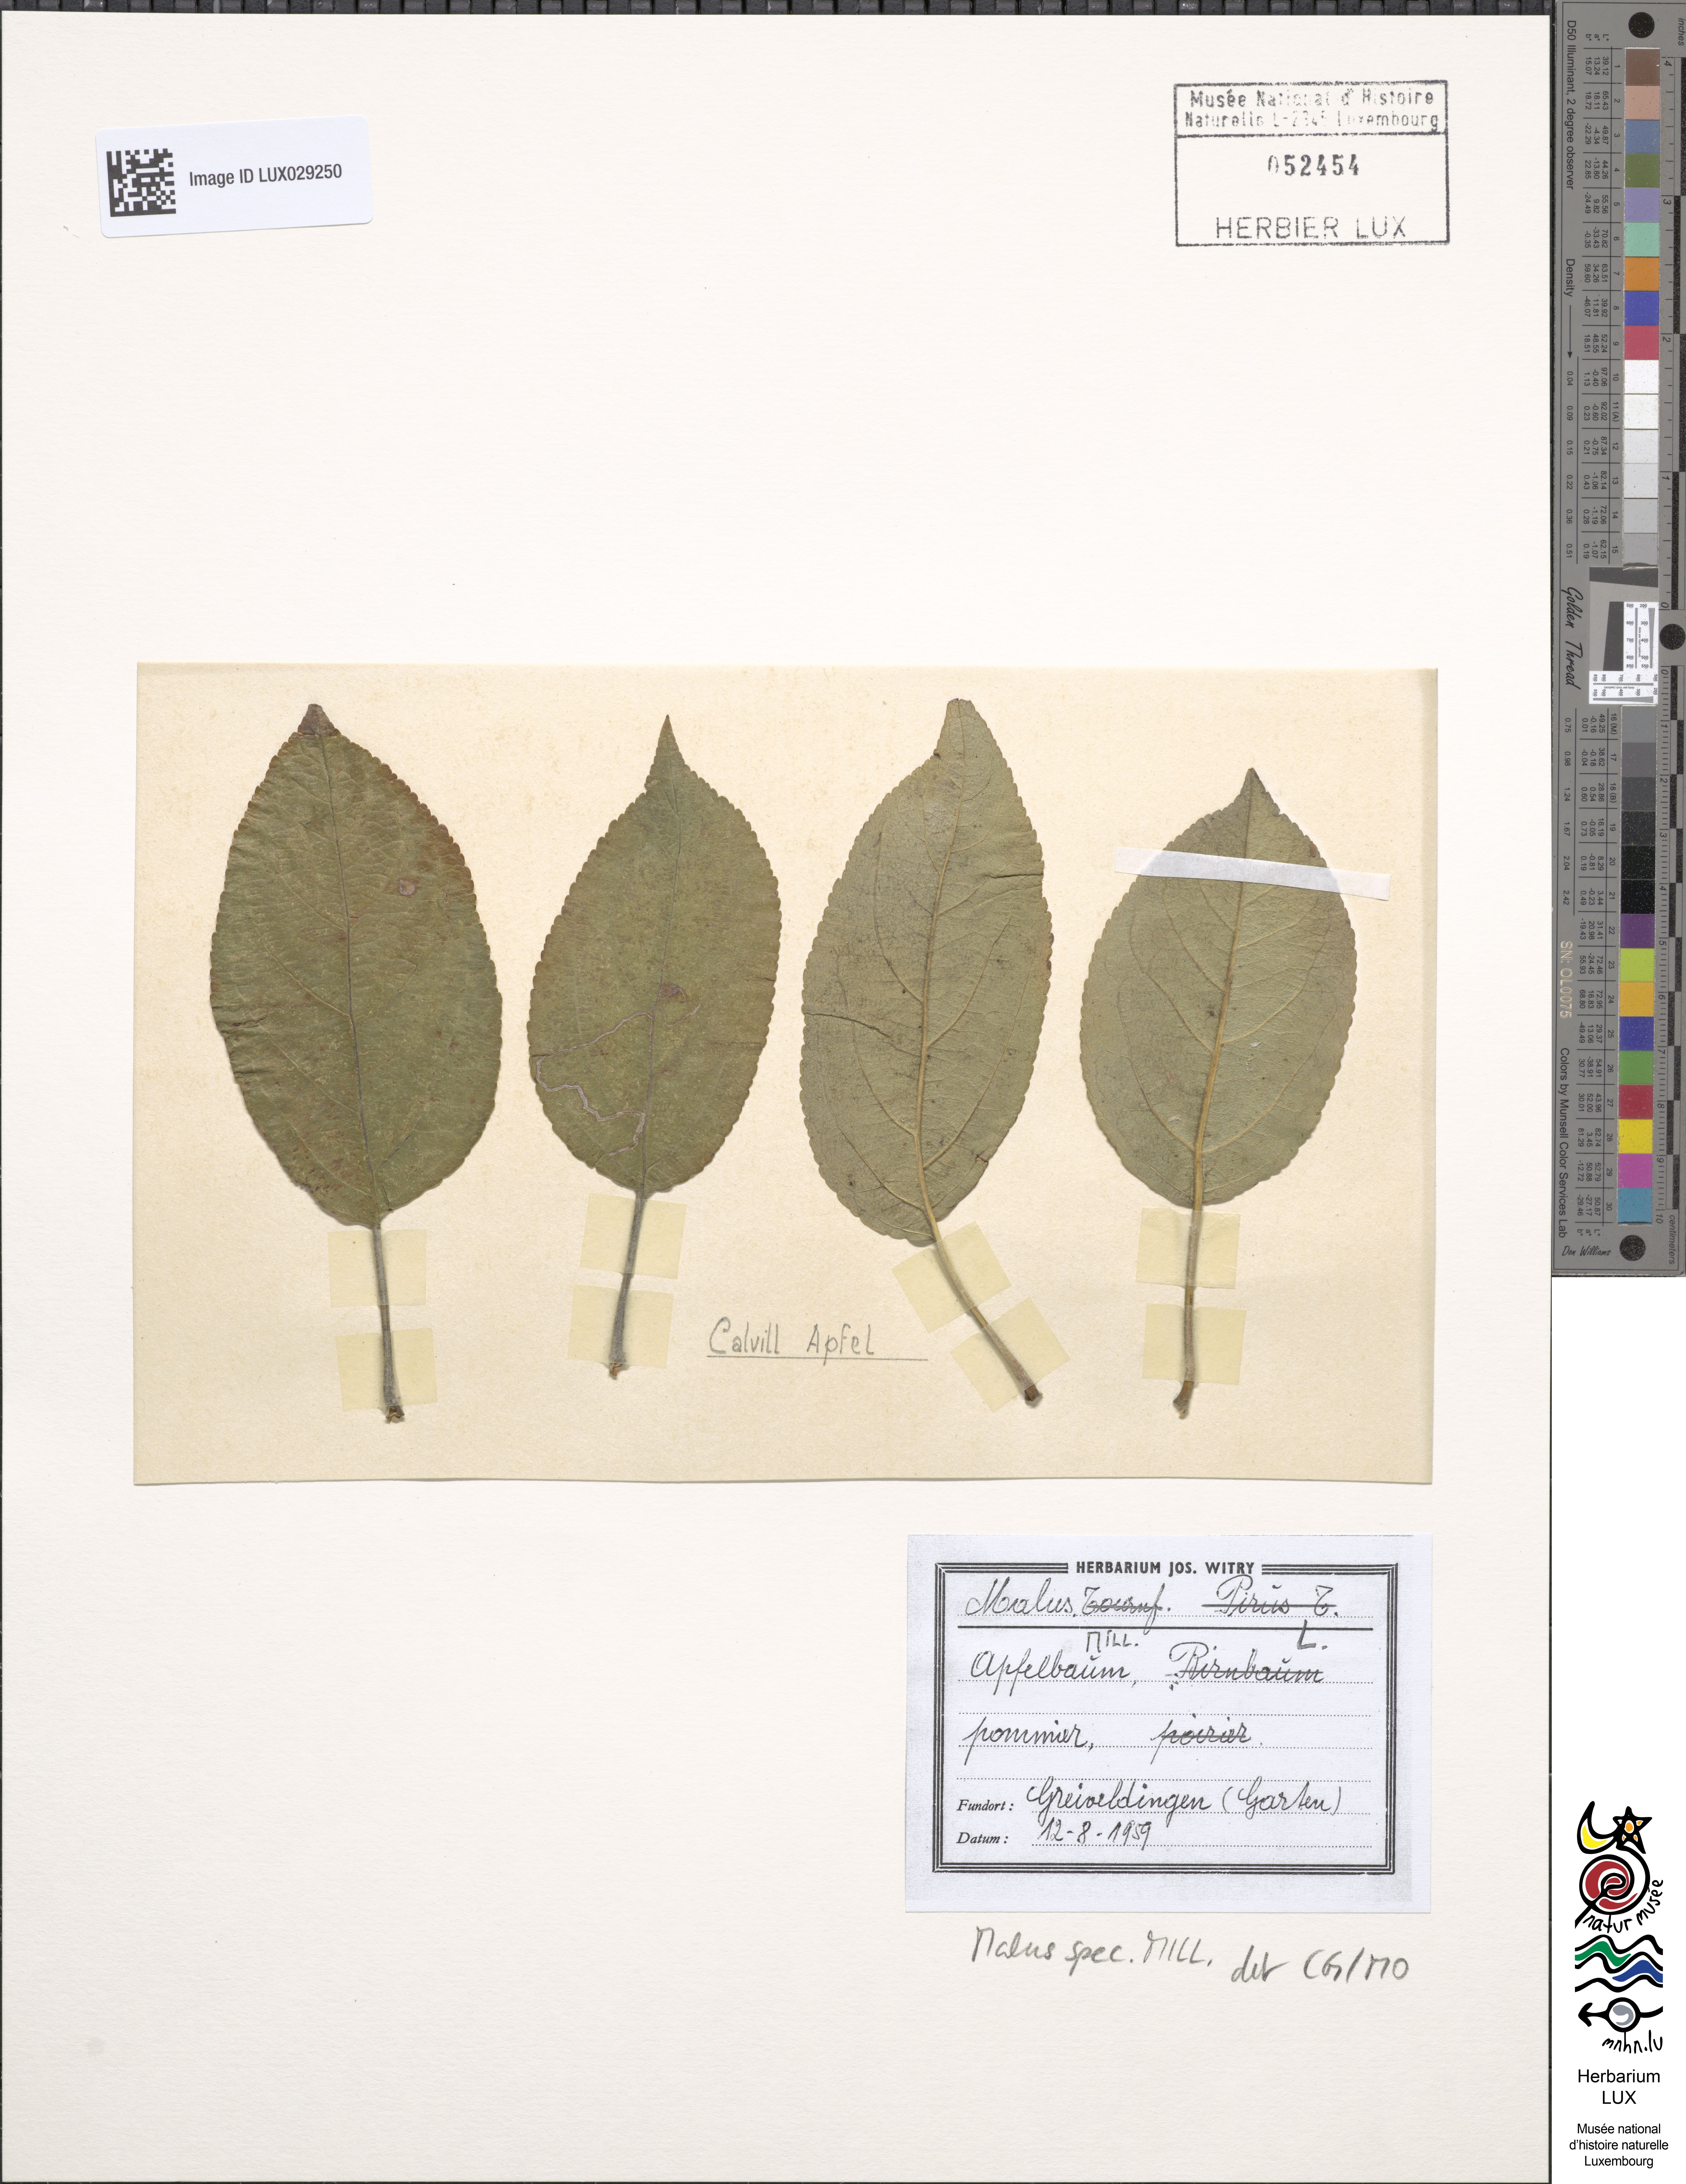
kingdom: Plantae
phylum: Tracheophyta
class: Magnoliopsida
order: Rosales
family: Rosaceae
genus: Malus
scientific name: Malus
